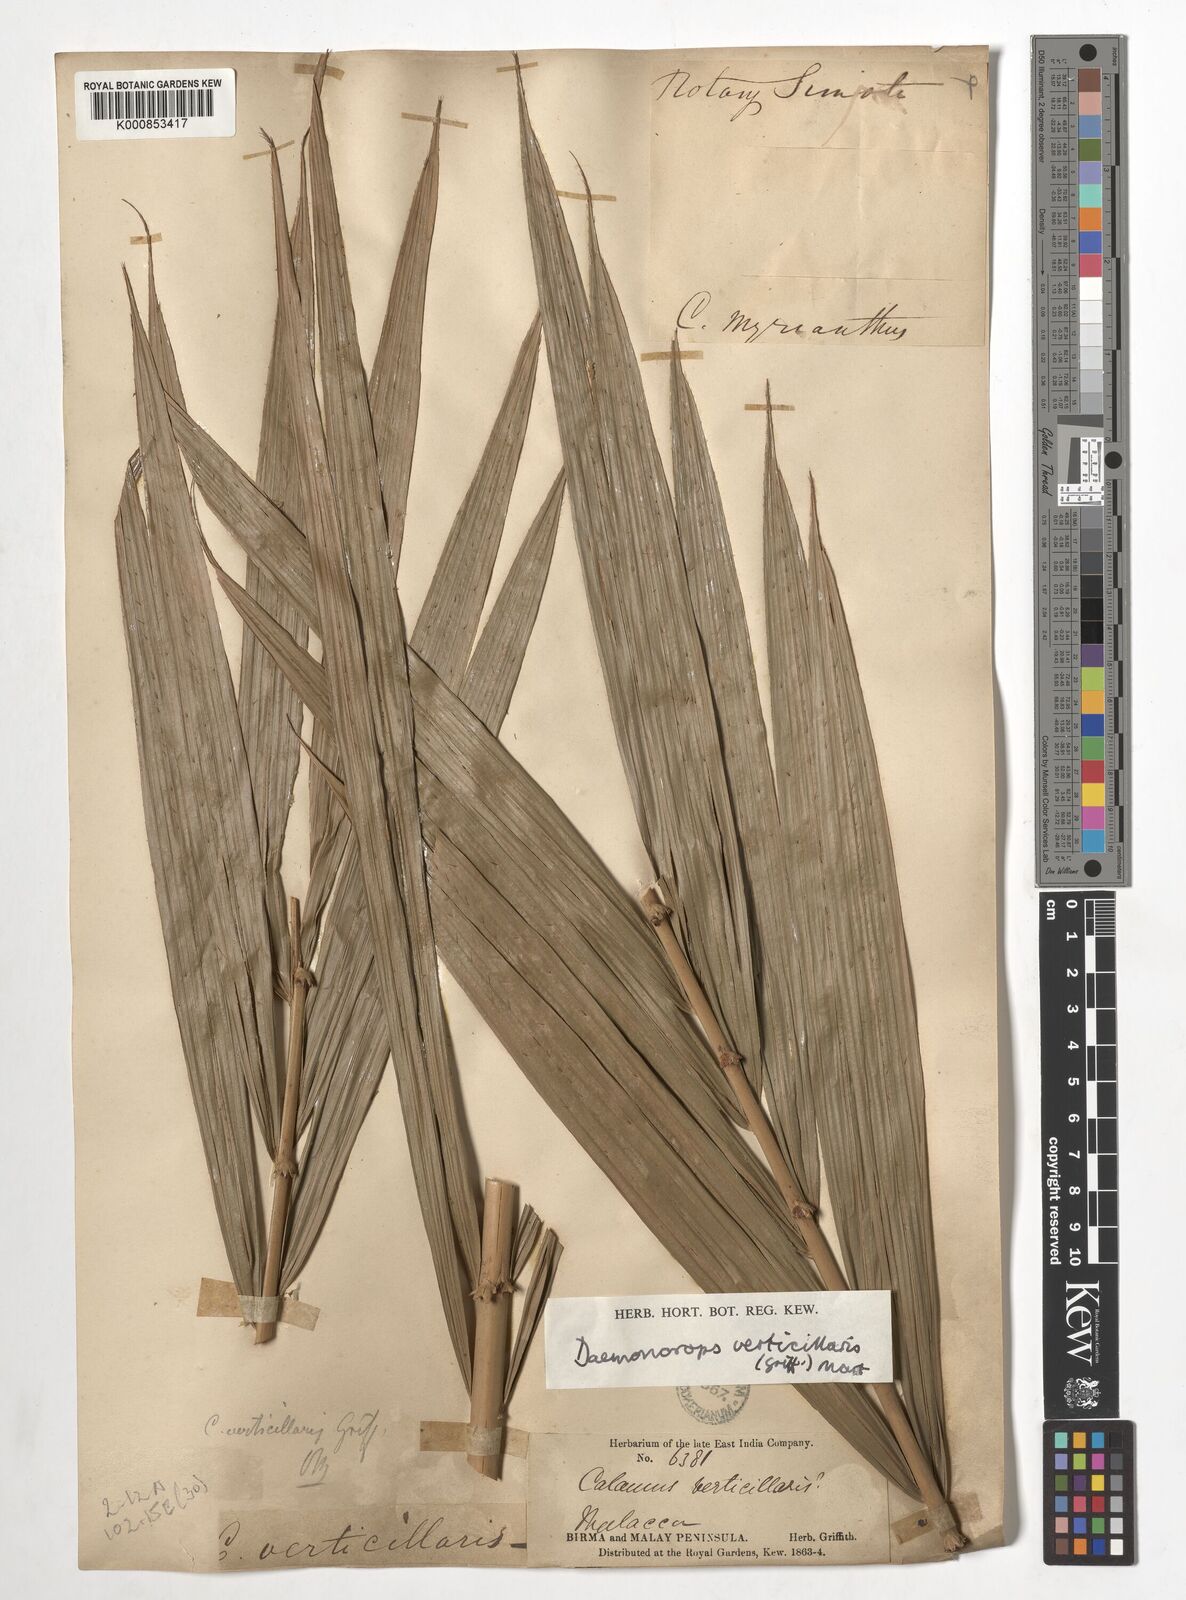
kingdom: Plantae
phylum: Tracheophyta
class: Liliopsida
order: Arecales
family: Arecaceae
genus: Calamus
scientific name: Calamus verticillaris
